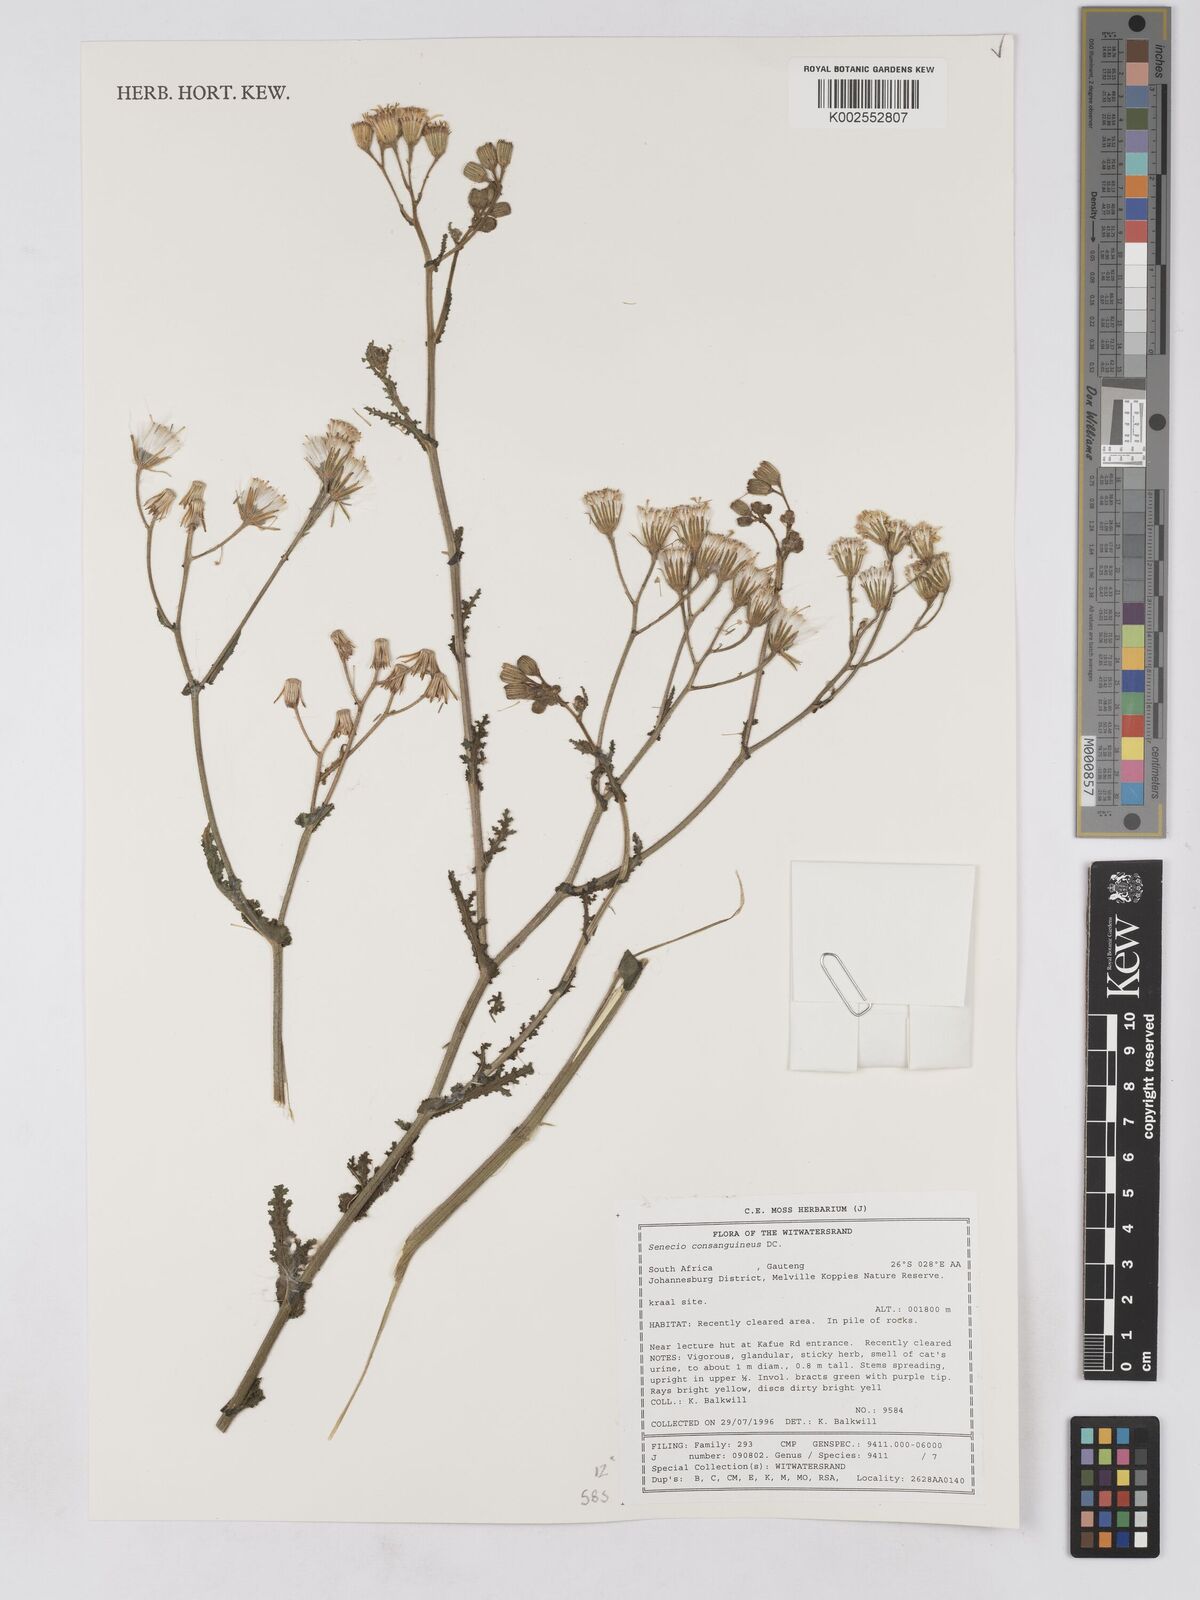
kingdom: Plantae
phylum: Tracheophyta
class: Magnoliopsida
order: Asterales
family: Asteraceae
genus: Senecio
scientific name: Senecio consanguineus
